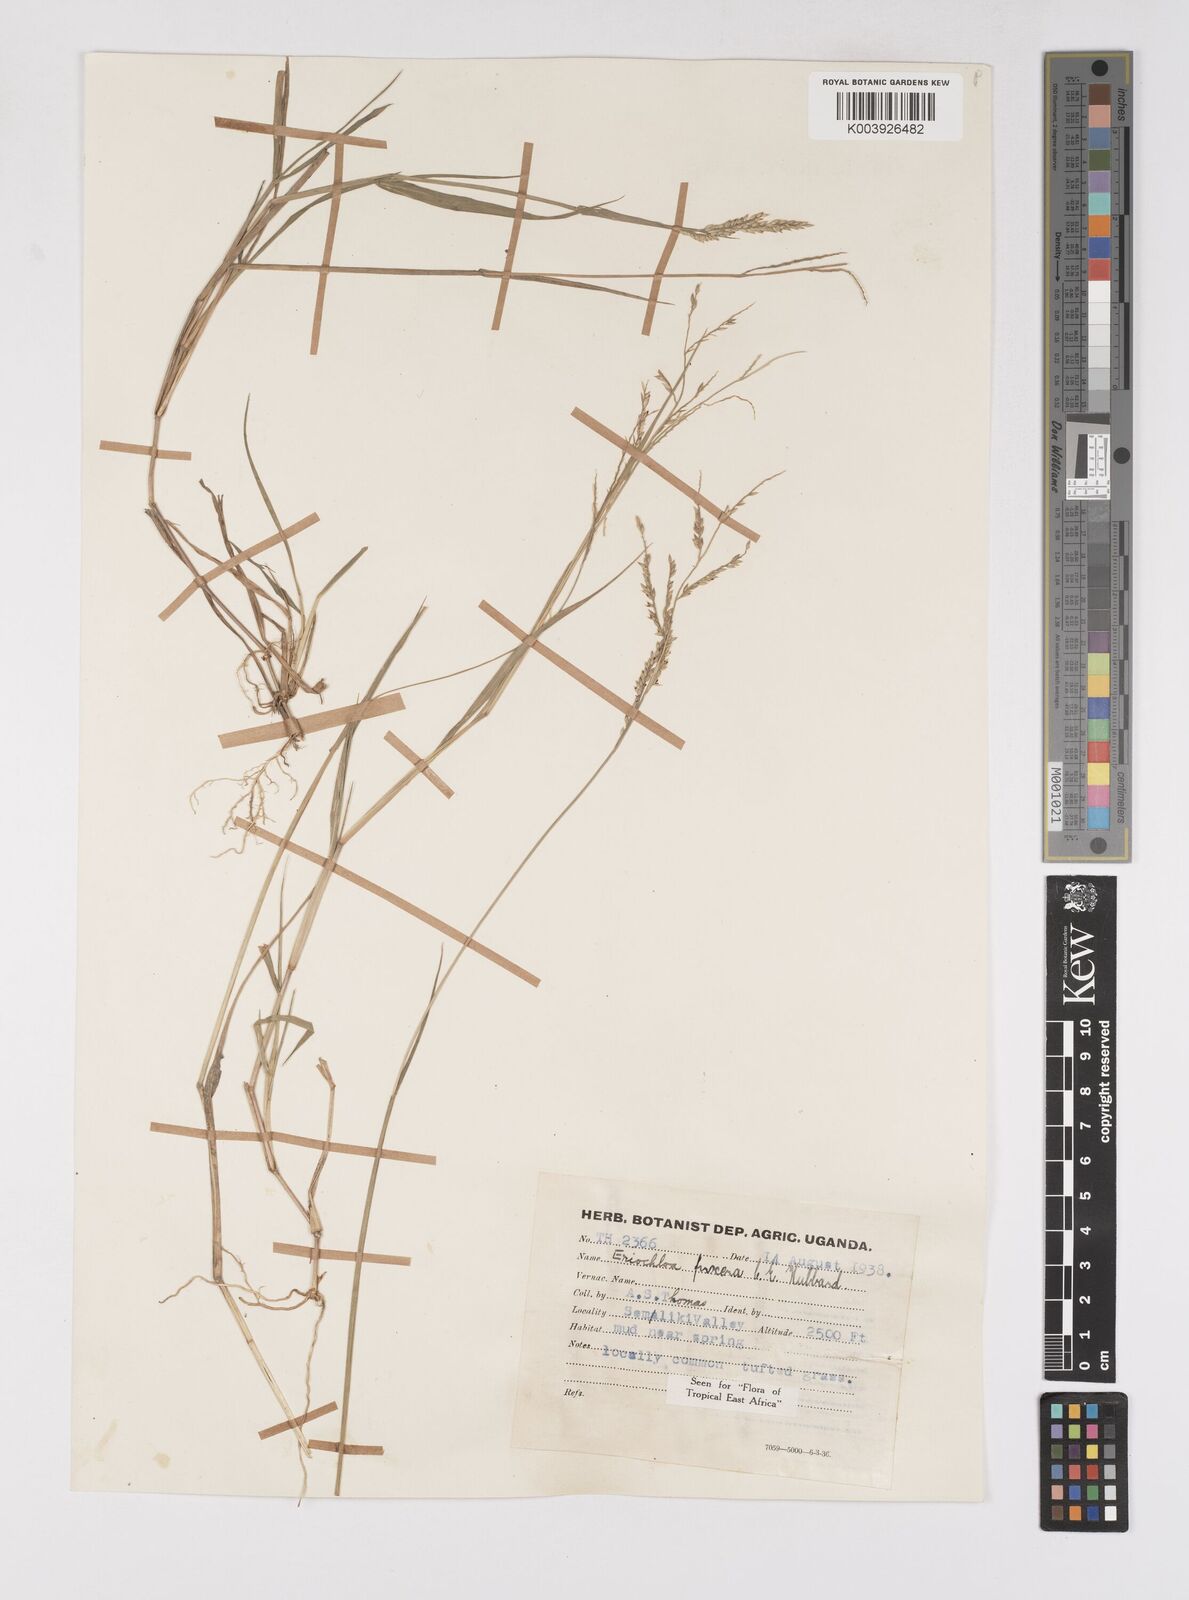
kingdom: Plantae
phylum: Tracheophyta
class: Liliopsida
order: Poales
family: Poaceae
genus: Eriochloa
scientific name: Eriochloa procera
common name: Spring grass
